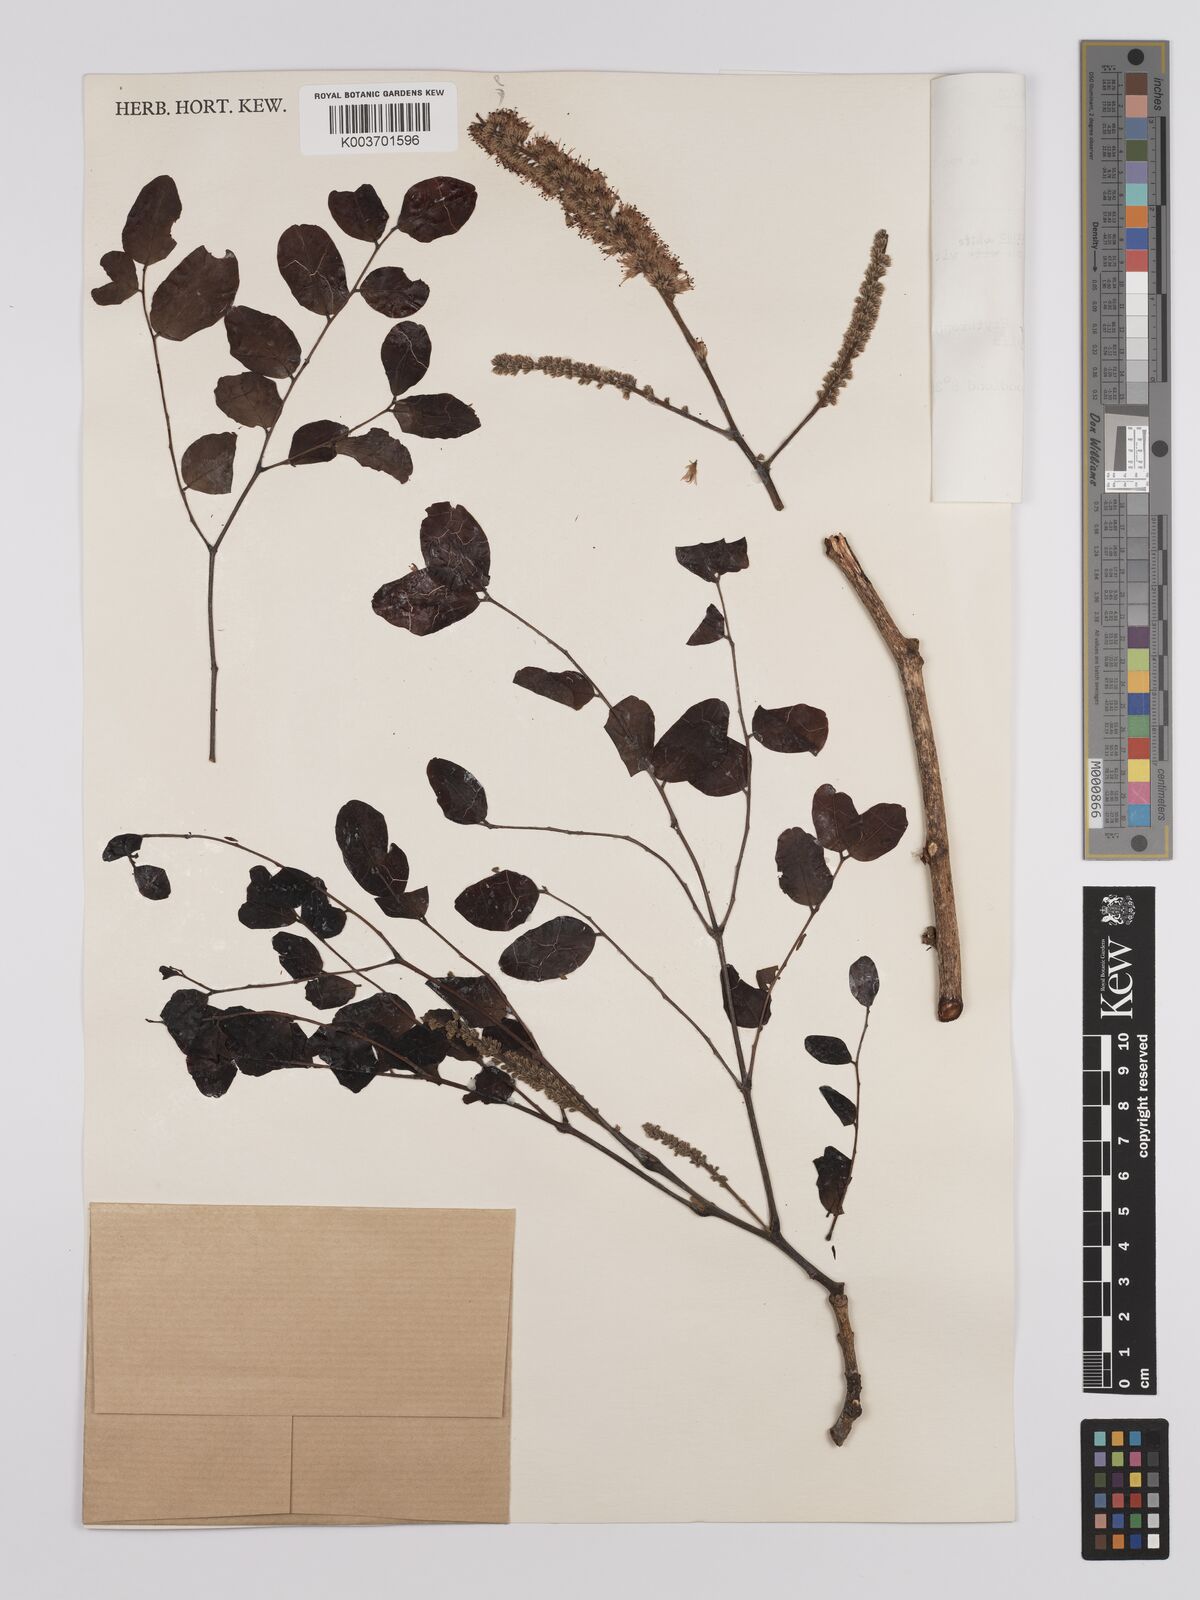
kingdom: Plantae
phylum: Tracheophyta
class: Magnoliopsida
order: Fabales
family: Fabaceae
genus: Erythrophleum
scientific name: Erythrophleum africanum
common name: African blackwood
